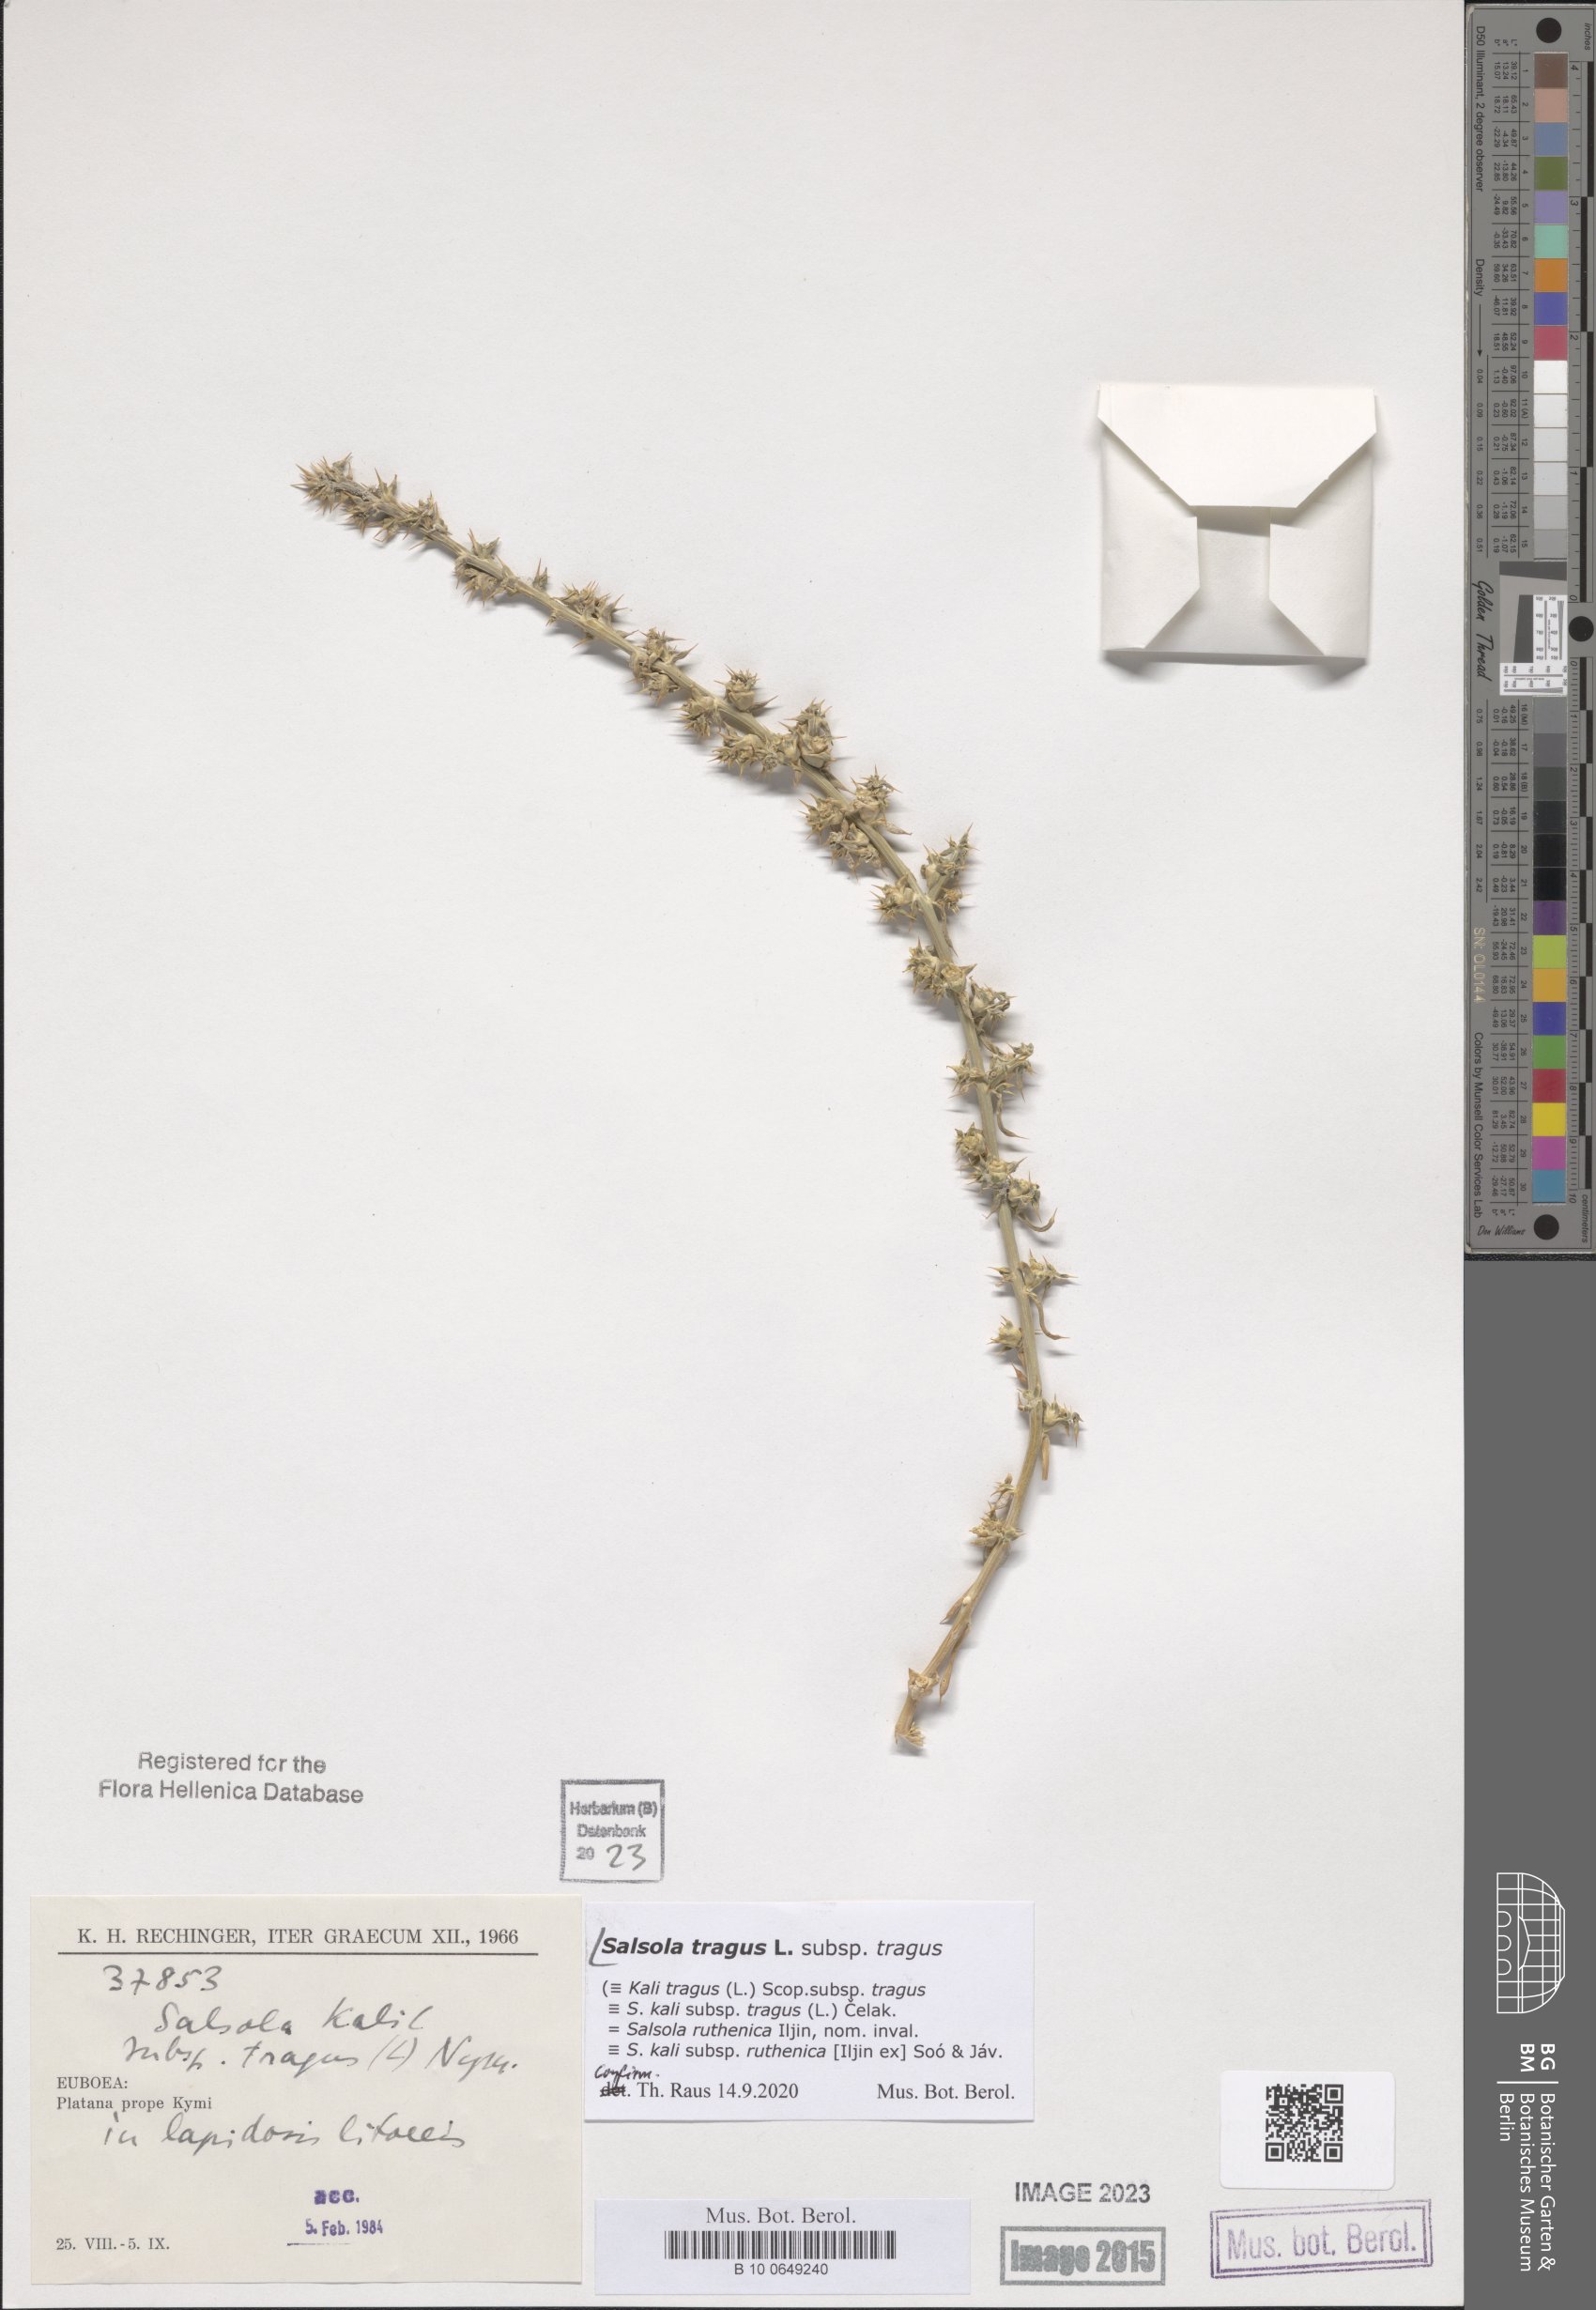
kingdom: Plantae
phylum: Tracheophyta
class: Magnoliopsida
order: Caryophyllales
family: Amaranthaceae
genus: Salsola
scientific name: Salsola tragus
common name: Prickly russian thistle
